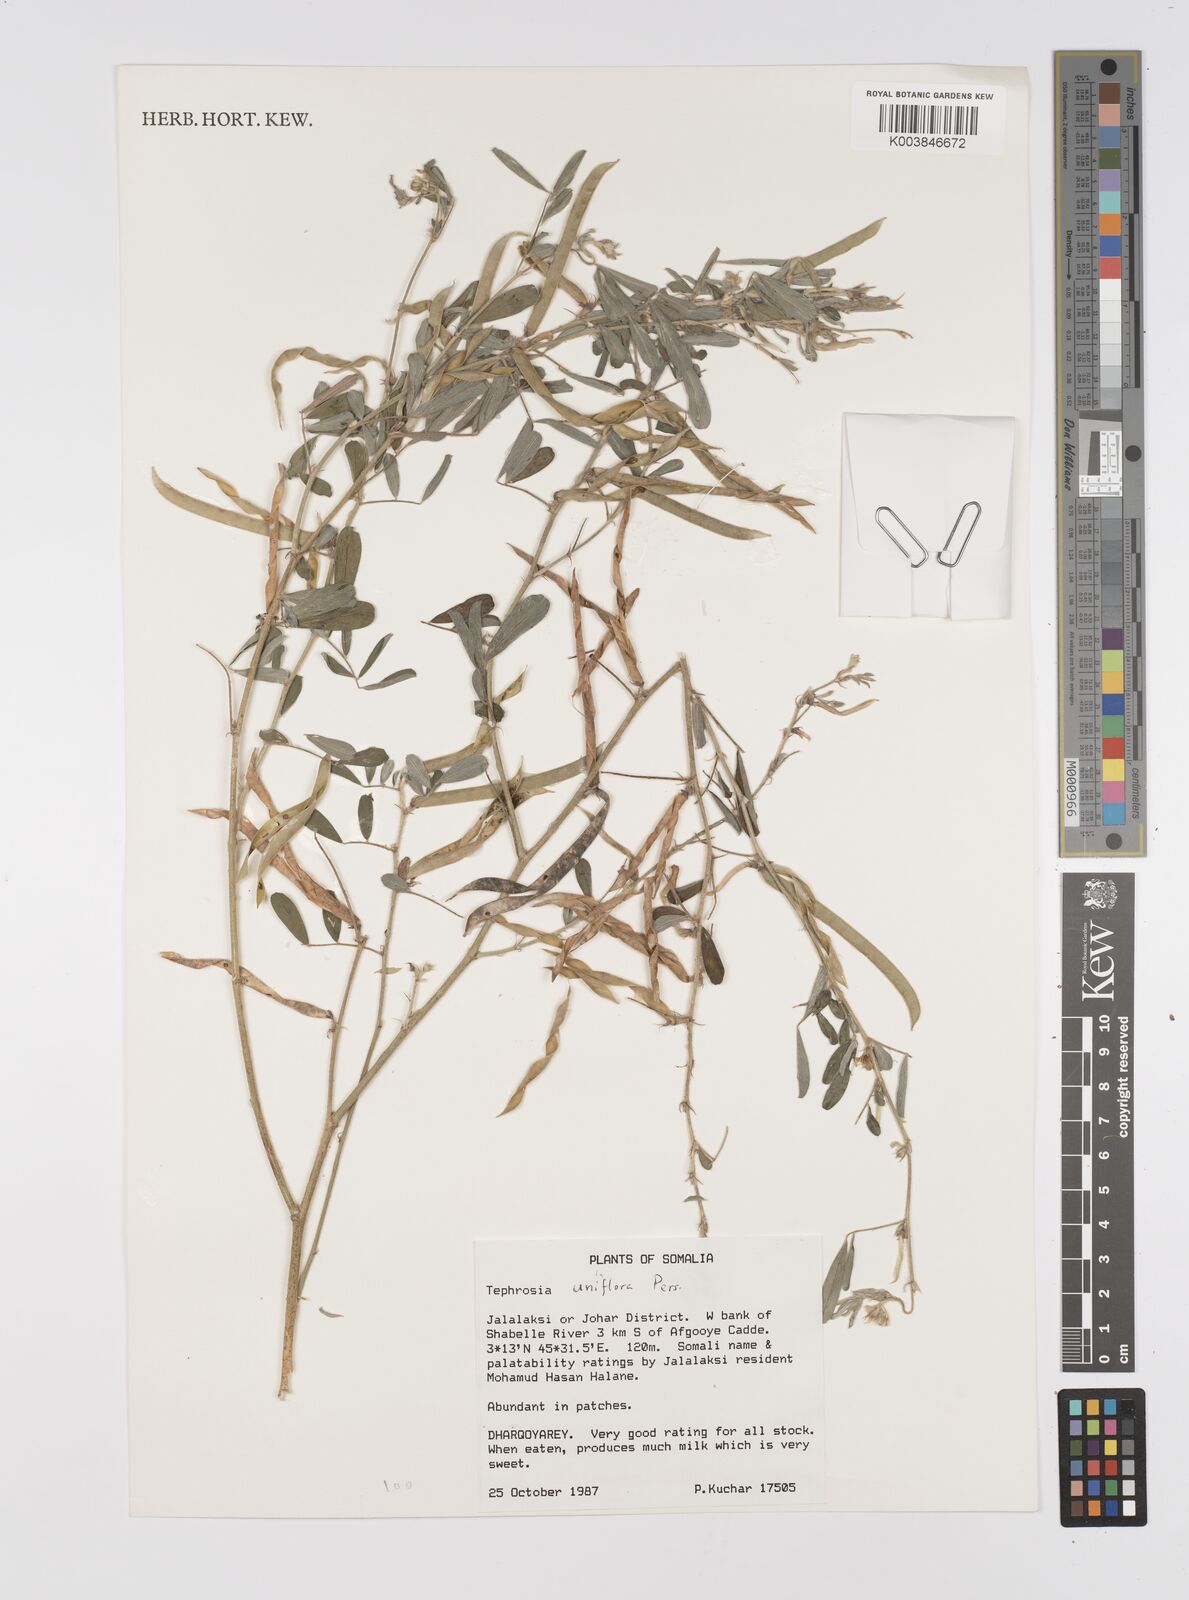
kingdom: Plantae
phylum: Tracheophyta
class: Magnoliopsida
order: Fabales
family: Fabaceae
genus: Tephrosia
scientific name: Tephrosia uniflora
